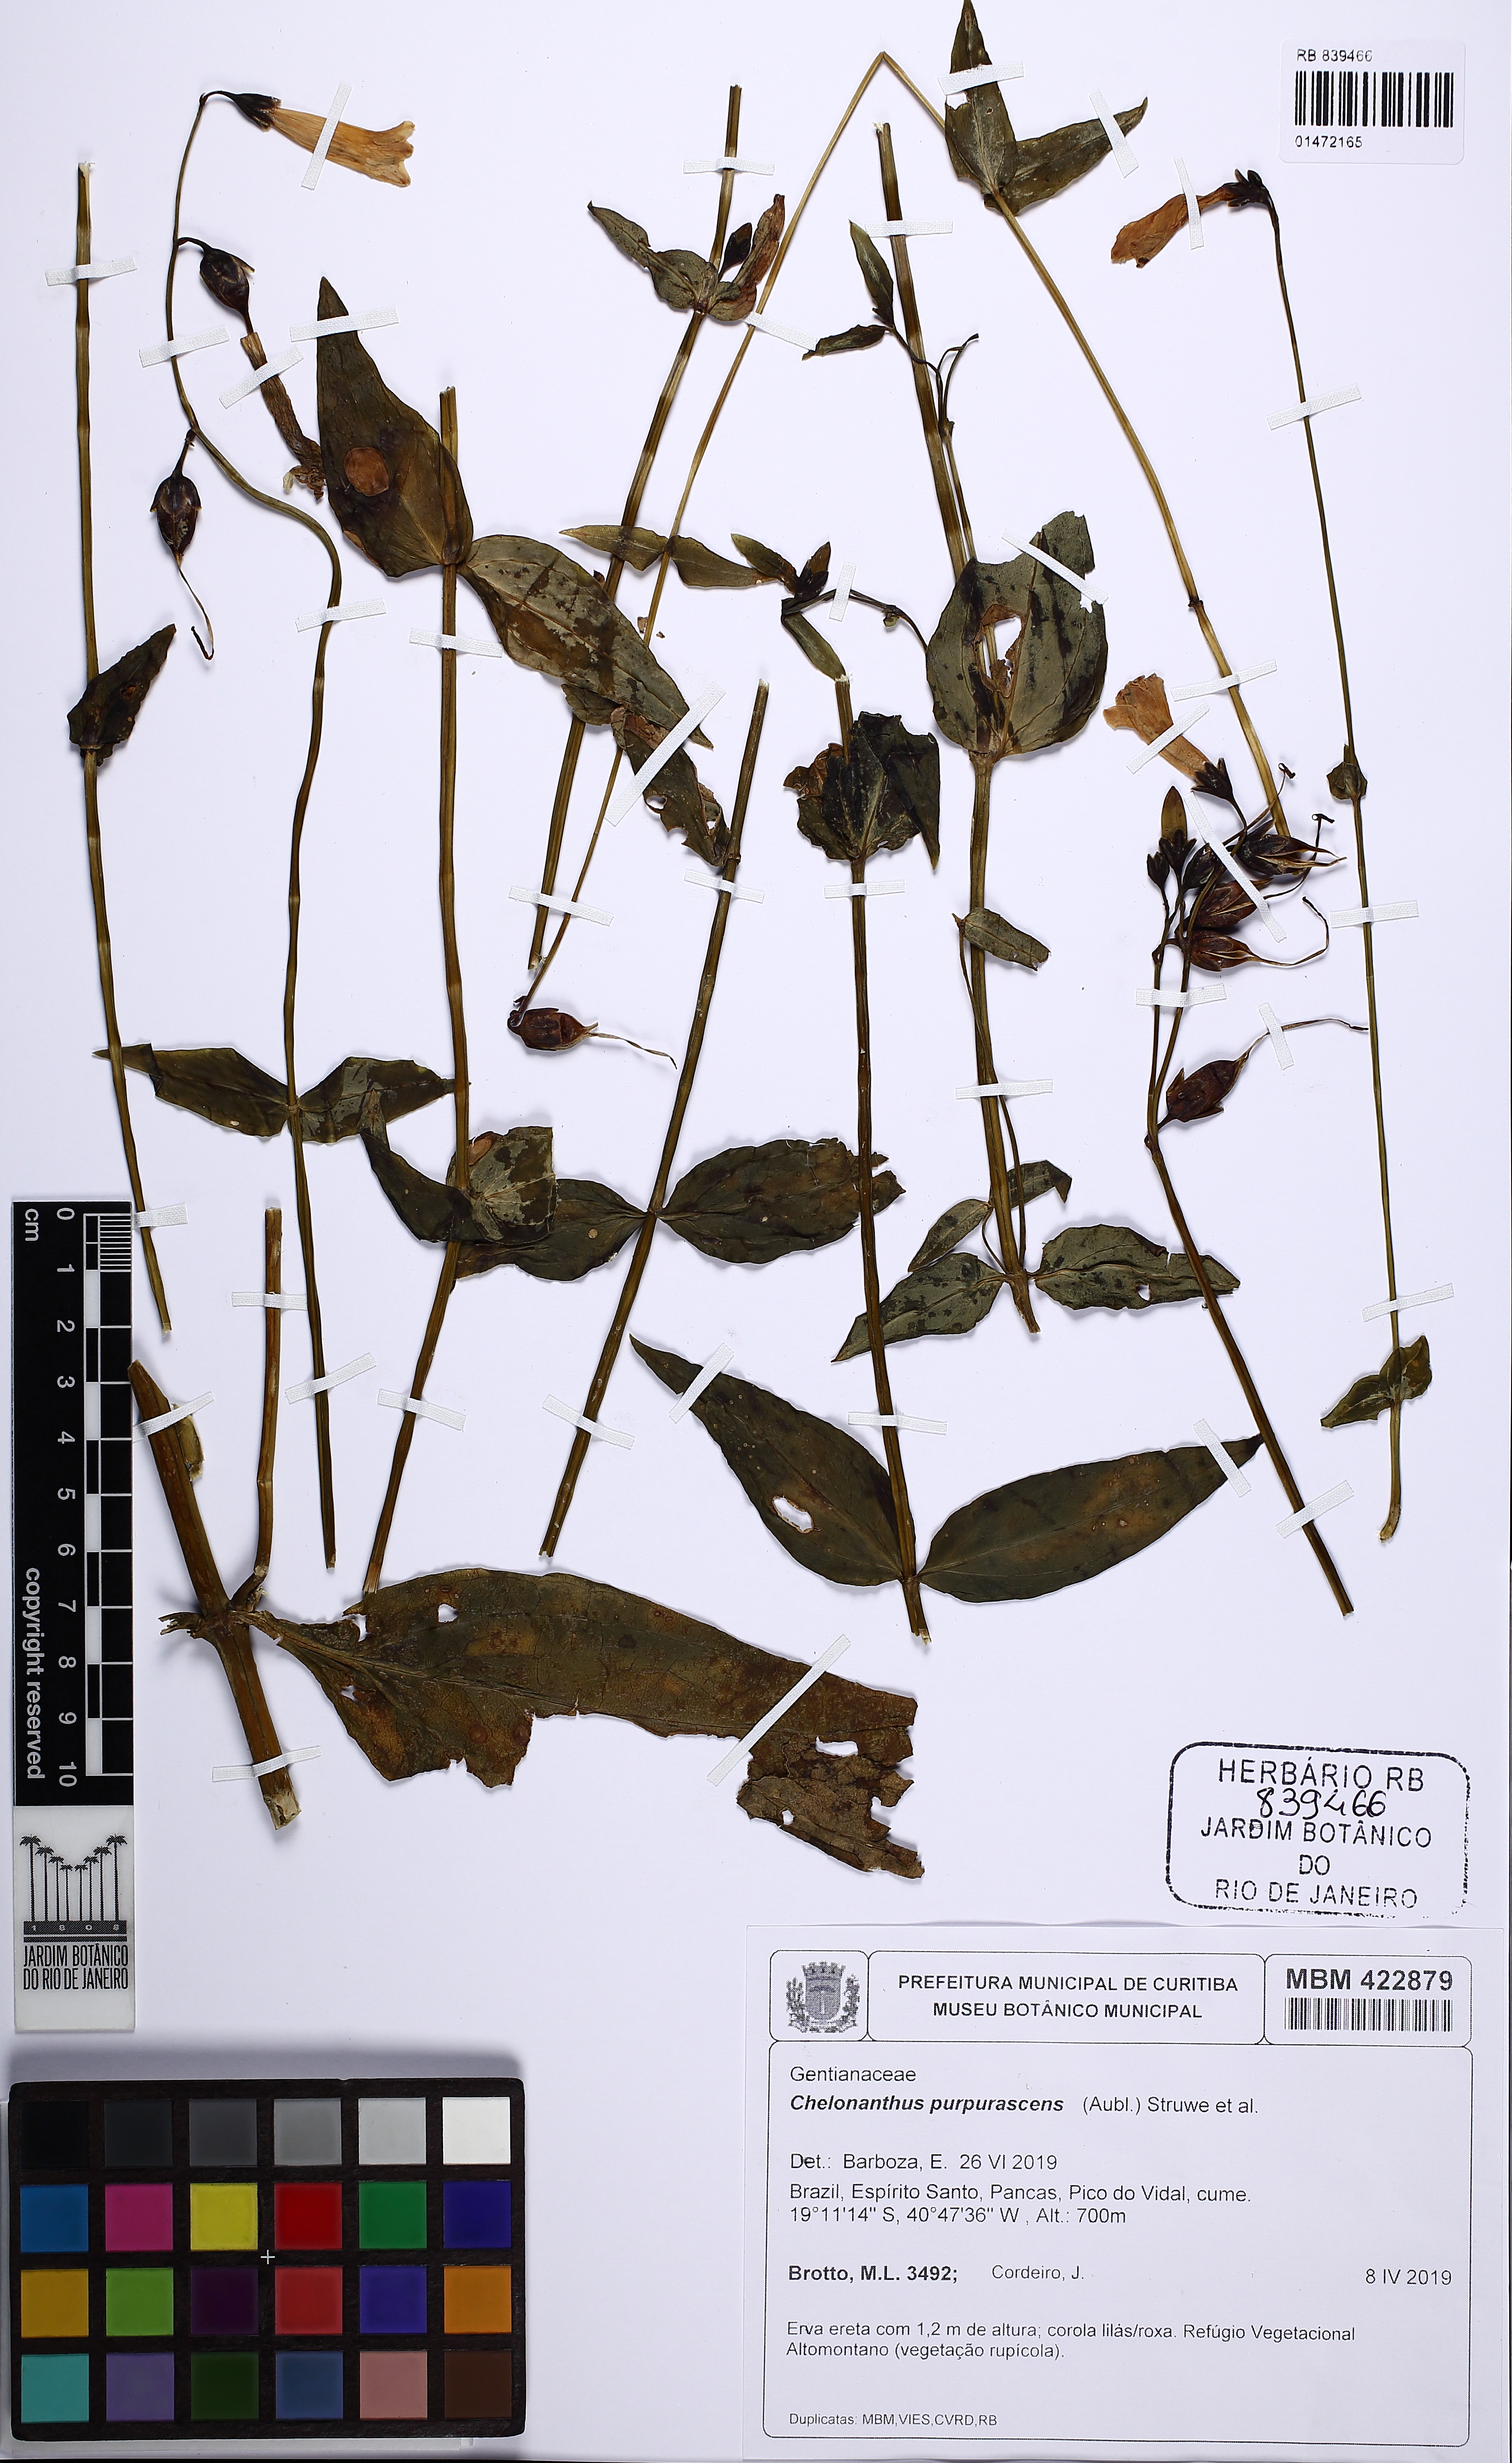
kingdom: Plantae
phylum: Tracheophyta
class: Magnoliopsida
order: Gentianales
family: Gentianaceae
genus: Chelonanthus
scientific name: Chelonanthus purpurascens
